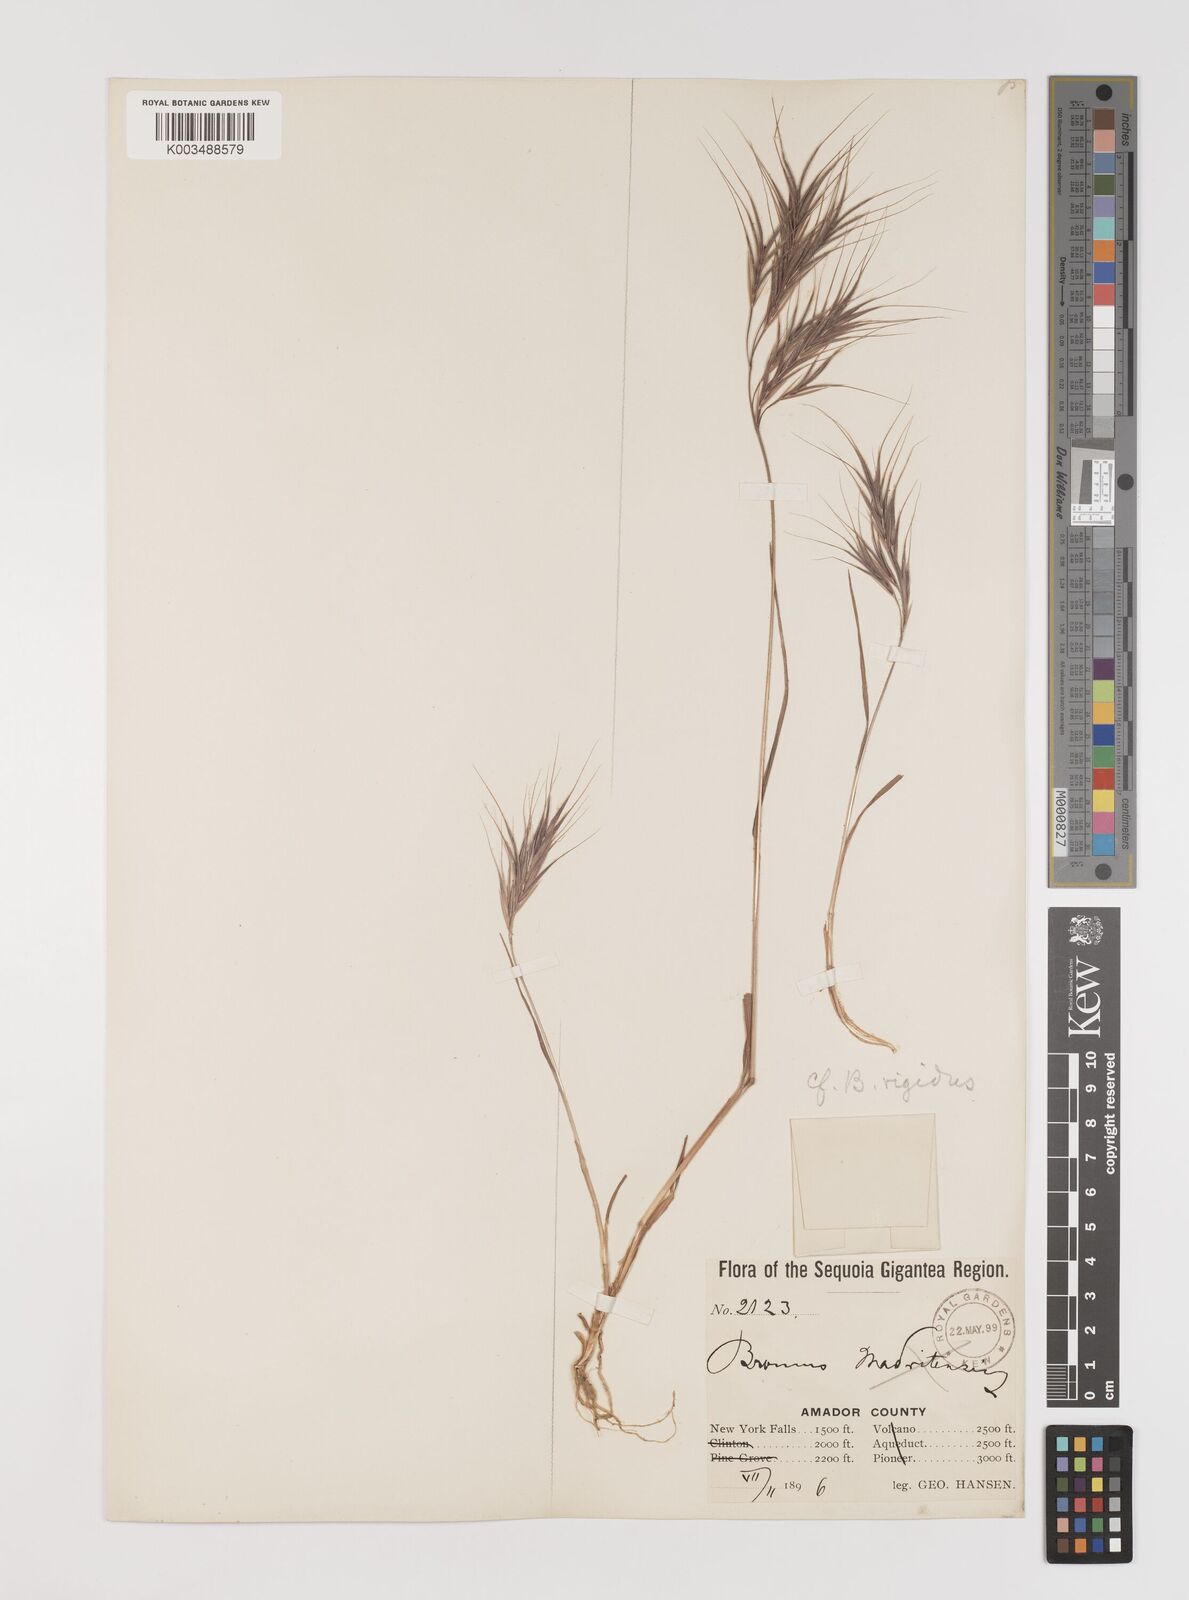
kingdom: Plantae
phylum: Tracheophyta
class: Liliopsida
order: Poales
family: Poaceae
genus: Bromus
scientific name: Bromus madritensis
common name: Compact brome
